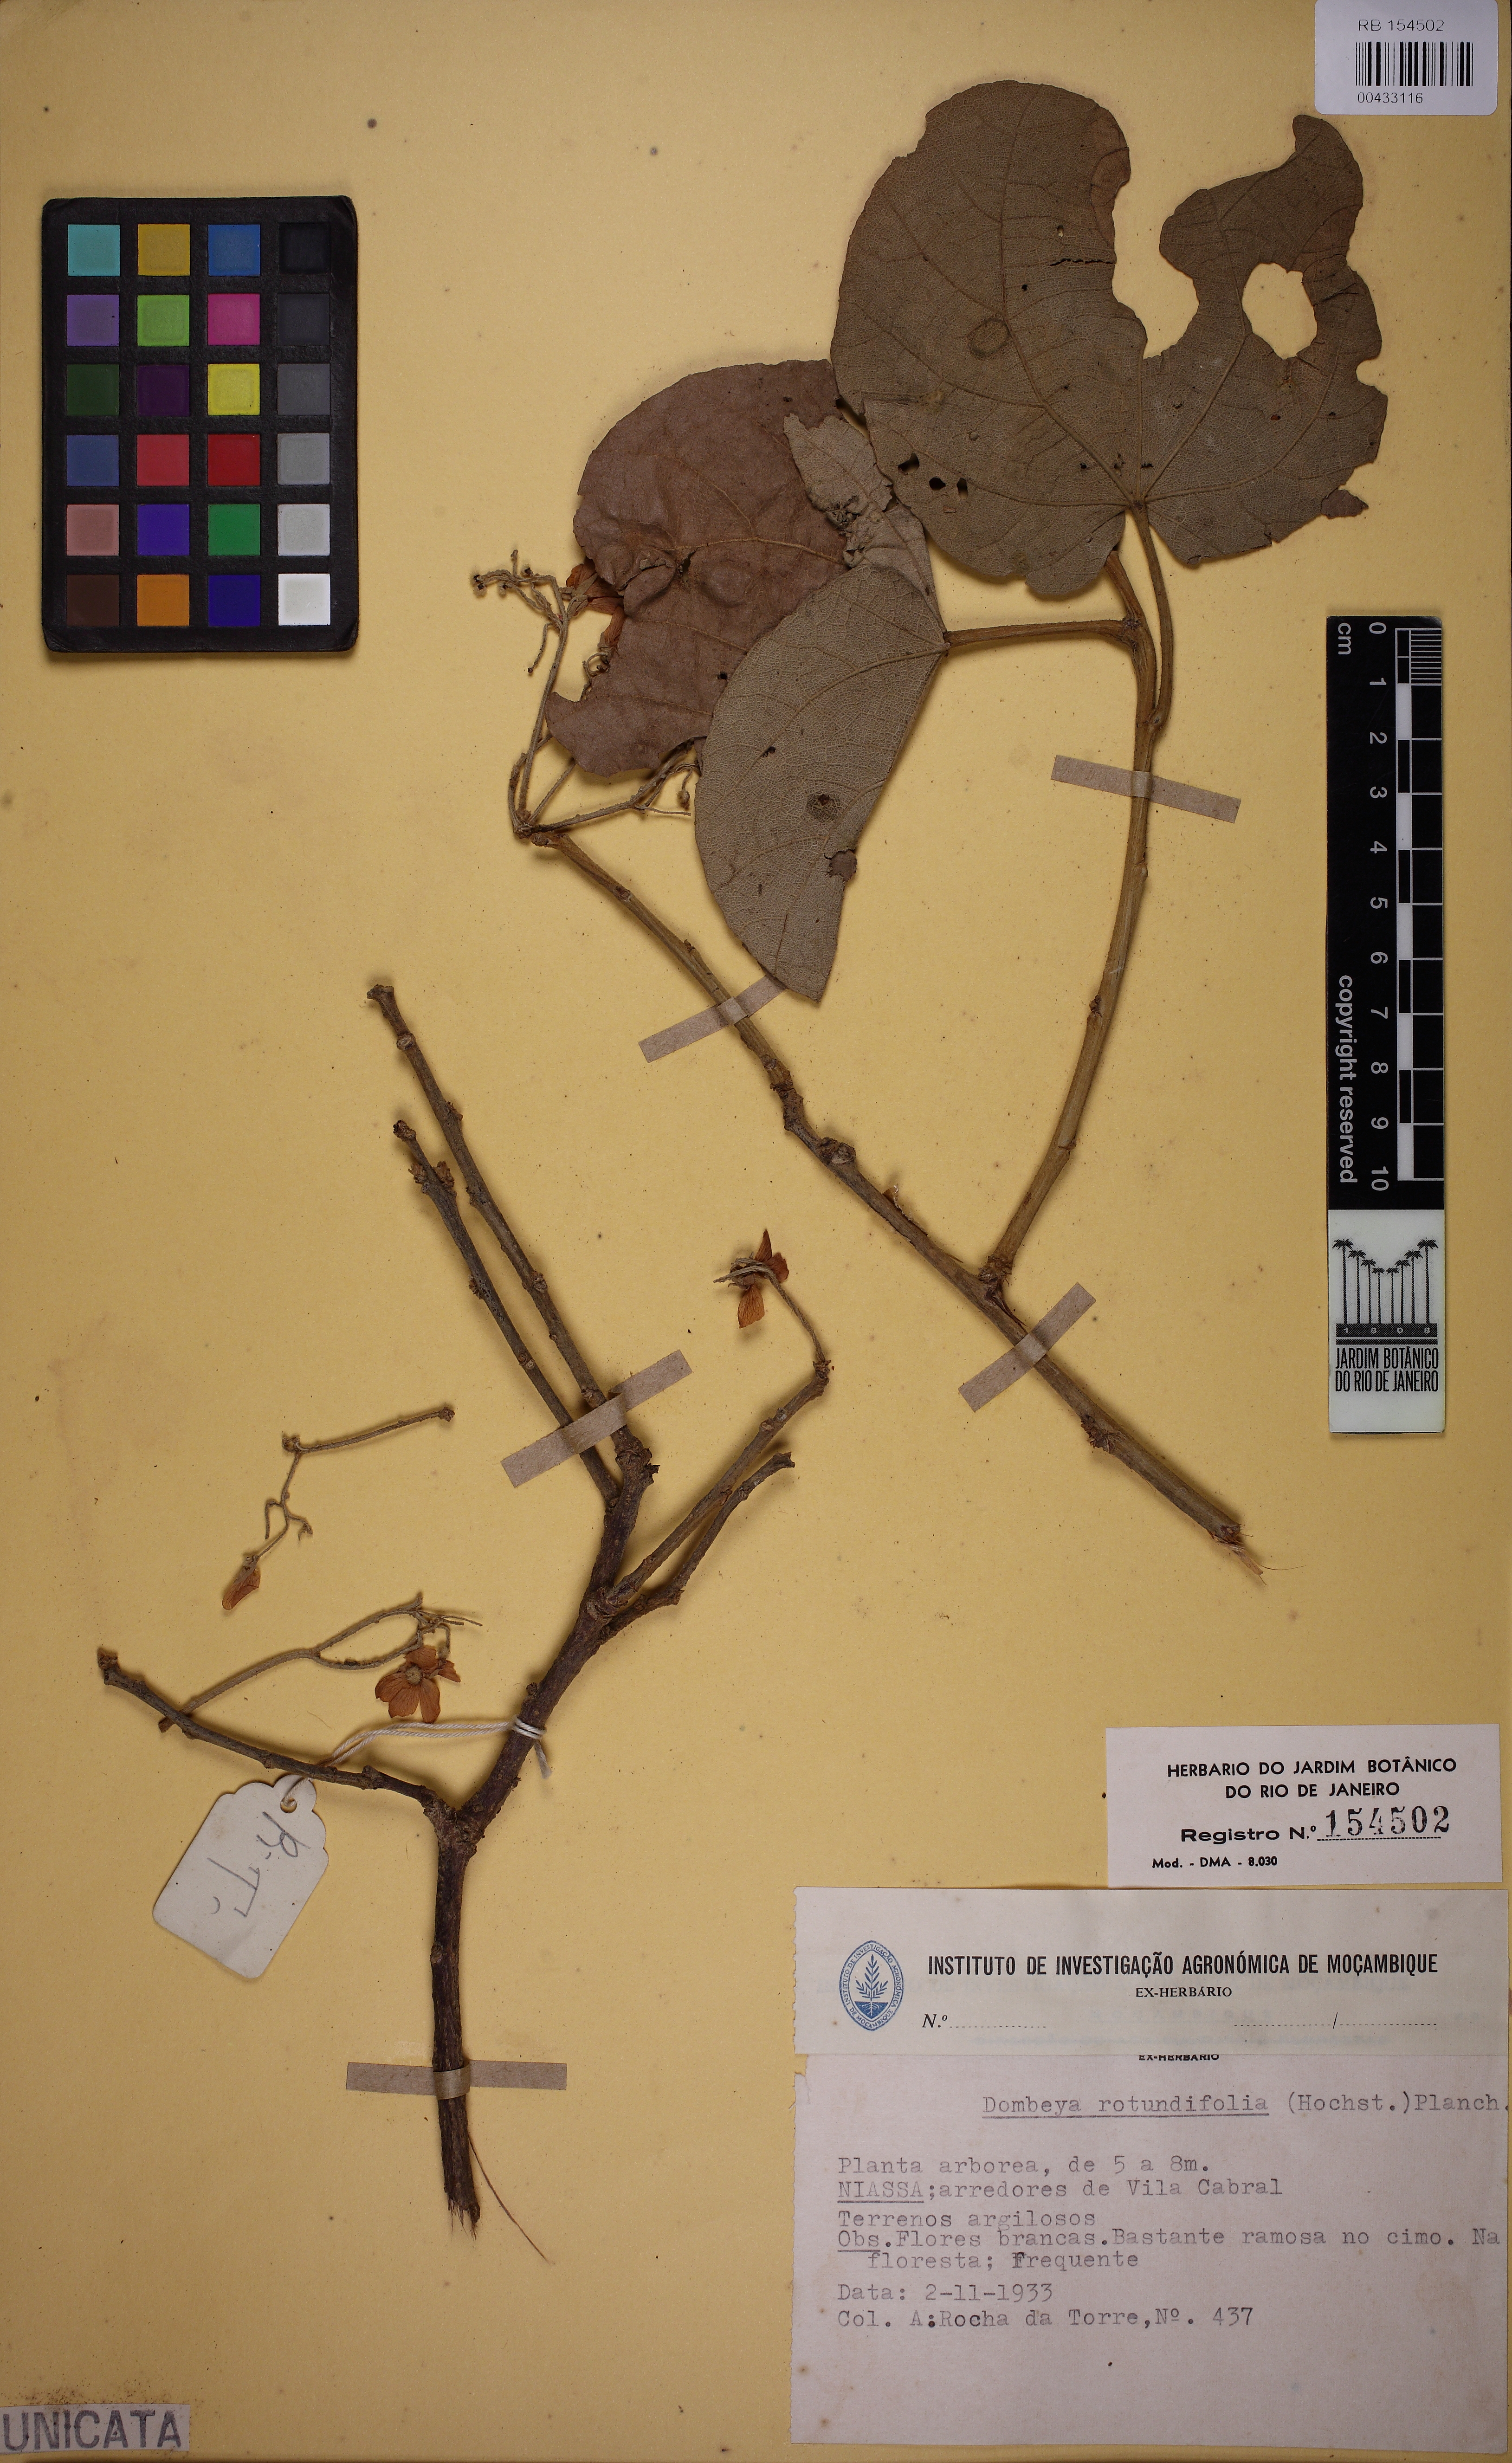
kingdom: Plantae
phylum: Tracheophyta
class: Magnoliopsida
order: Malvales
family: Malvaceae
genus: Dombeya
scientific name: Dombeya rotundifolia
